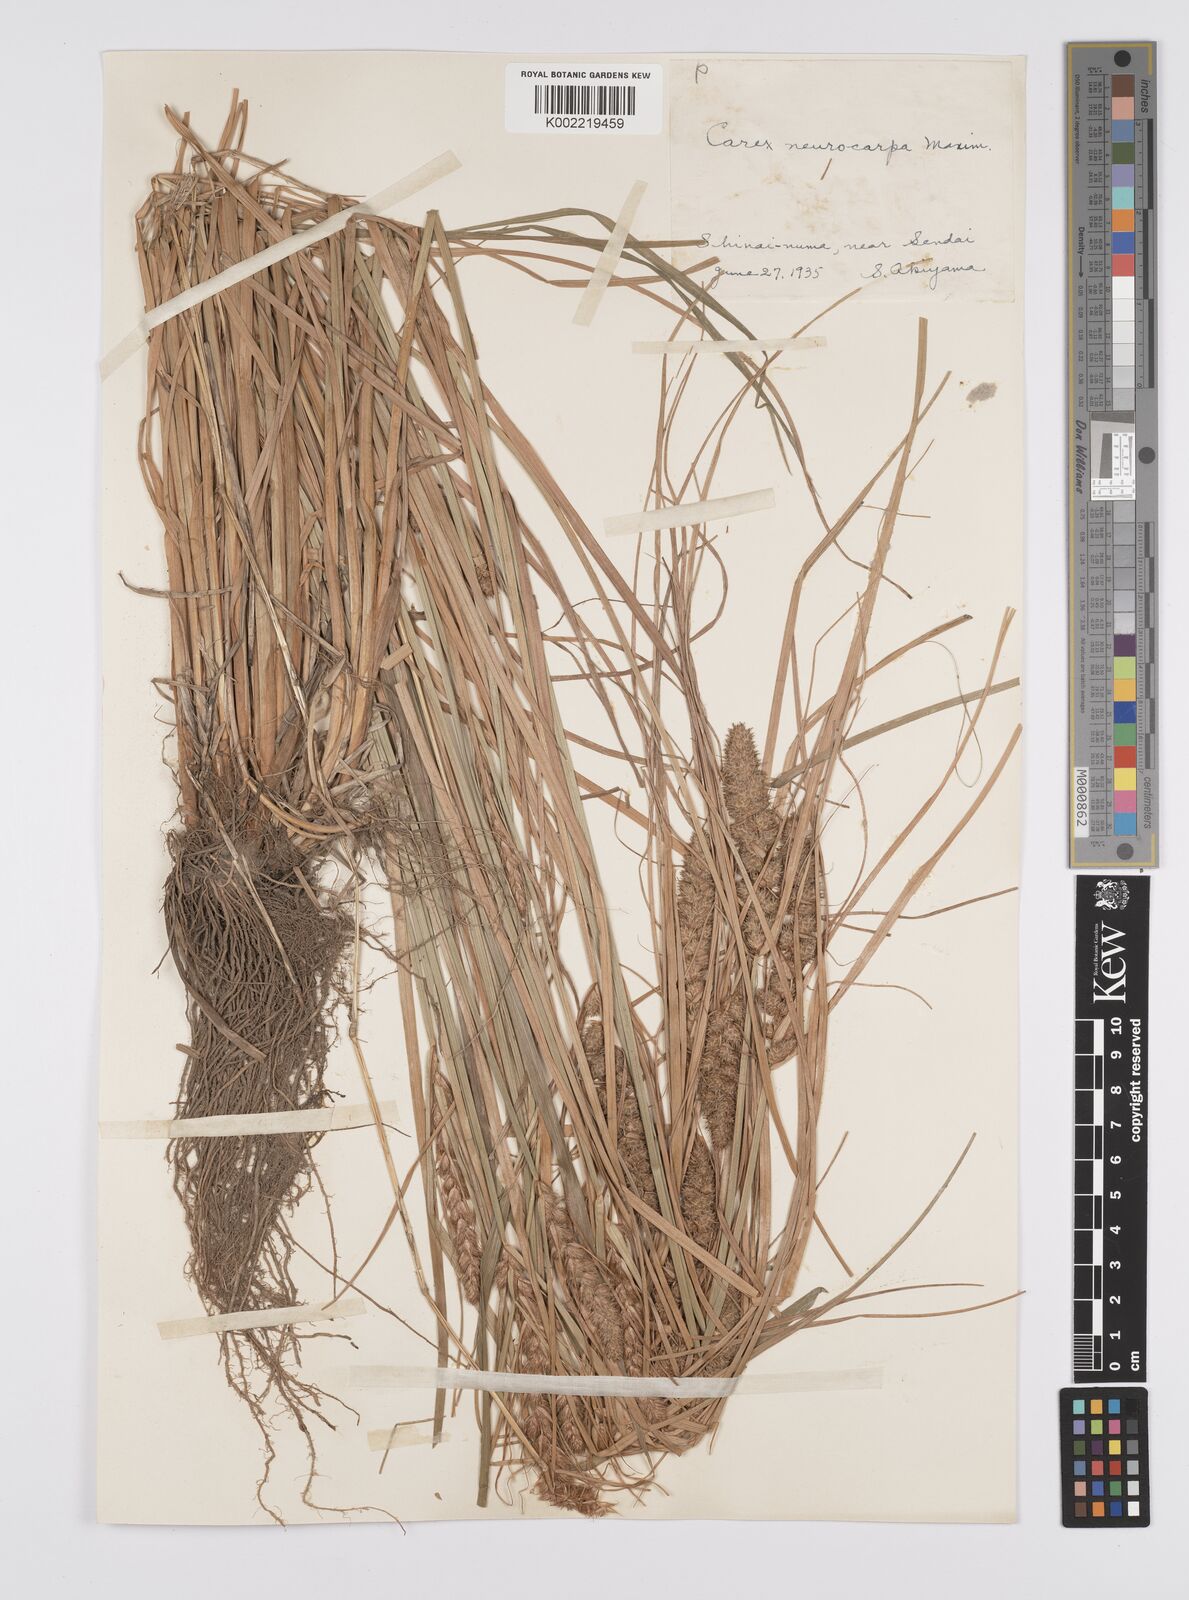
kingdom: Plantae
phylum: Tracheophyta
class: Liliopsida
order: Poales
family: Cyperaceae
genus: Carex
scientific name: Carex neurocarpa
